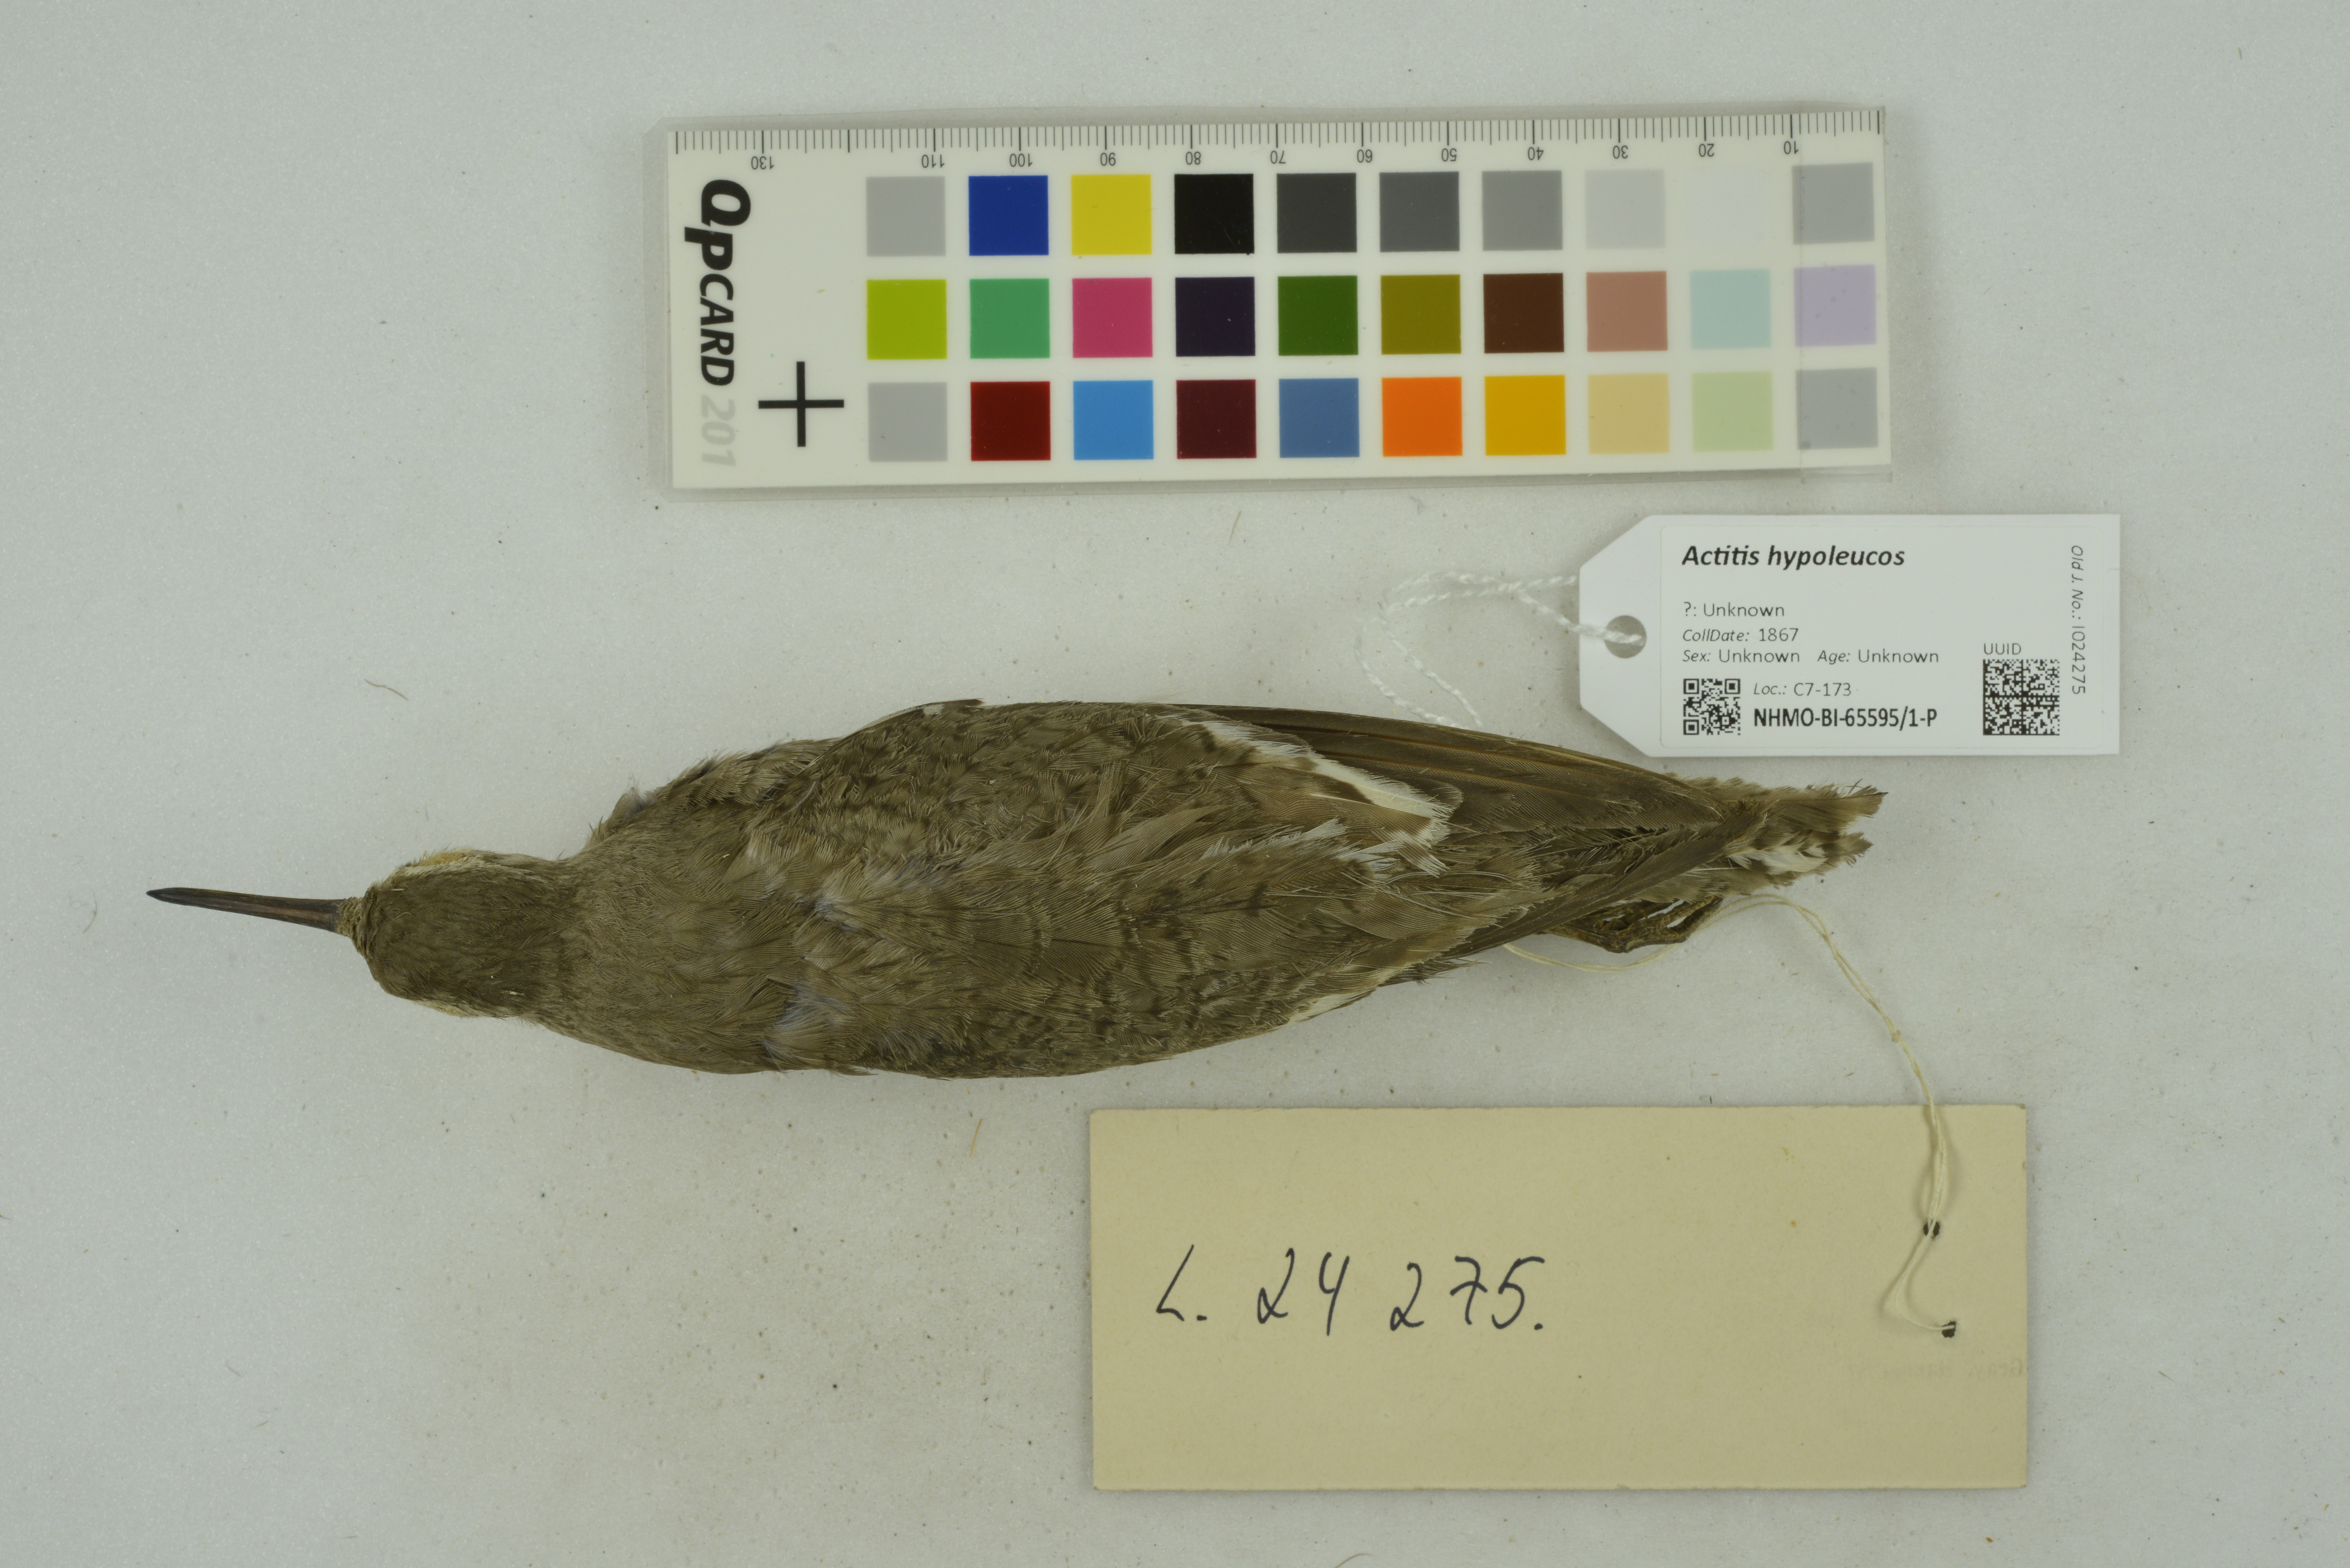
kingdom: Animalia
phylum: Chordata
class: Aves
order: Charadriiformes
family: Scolopacidae
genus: Actitis
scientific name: Actitis hypoleucos
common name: Common sandpiper
